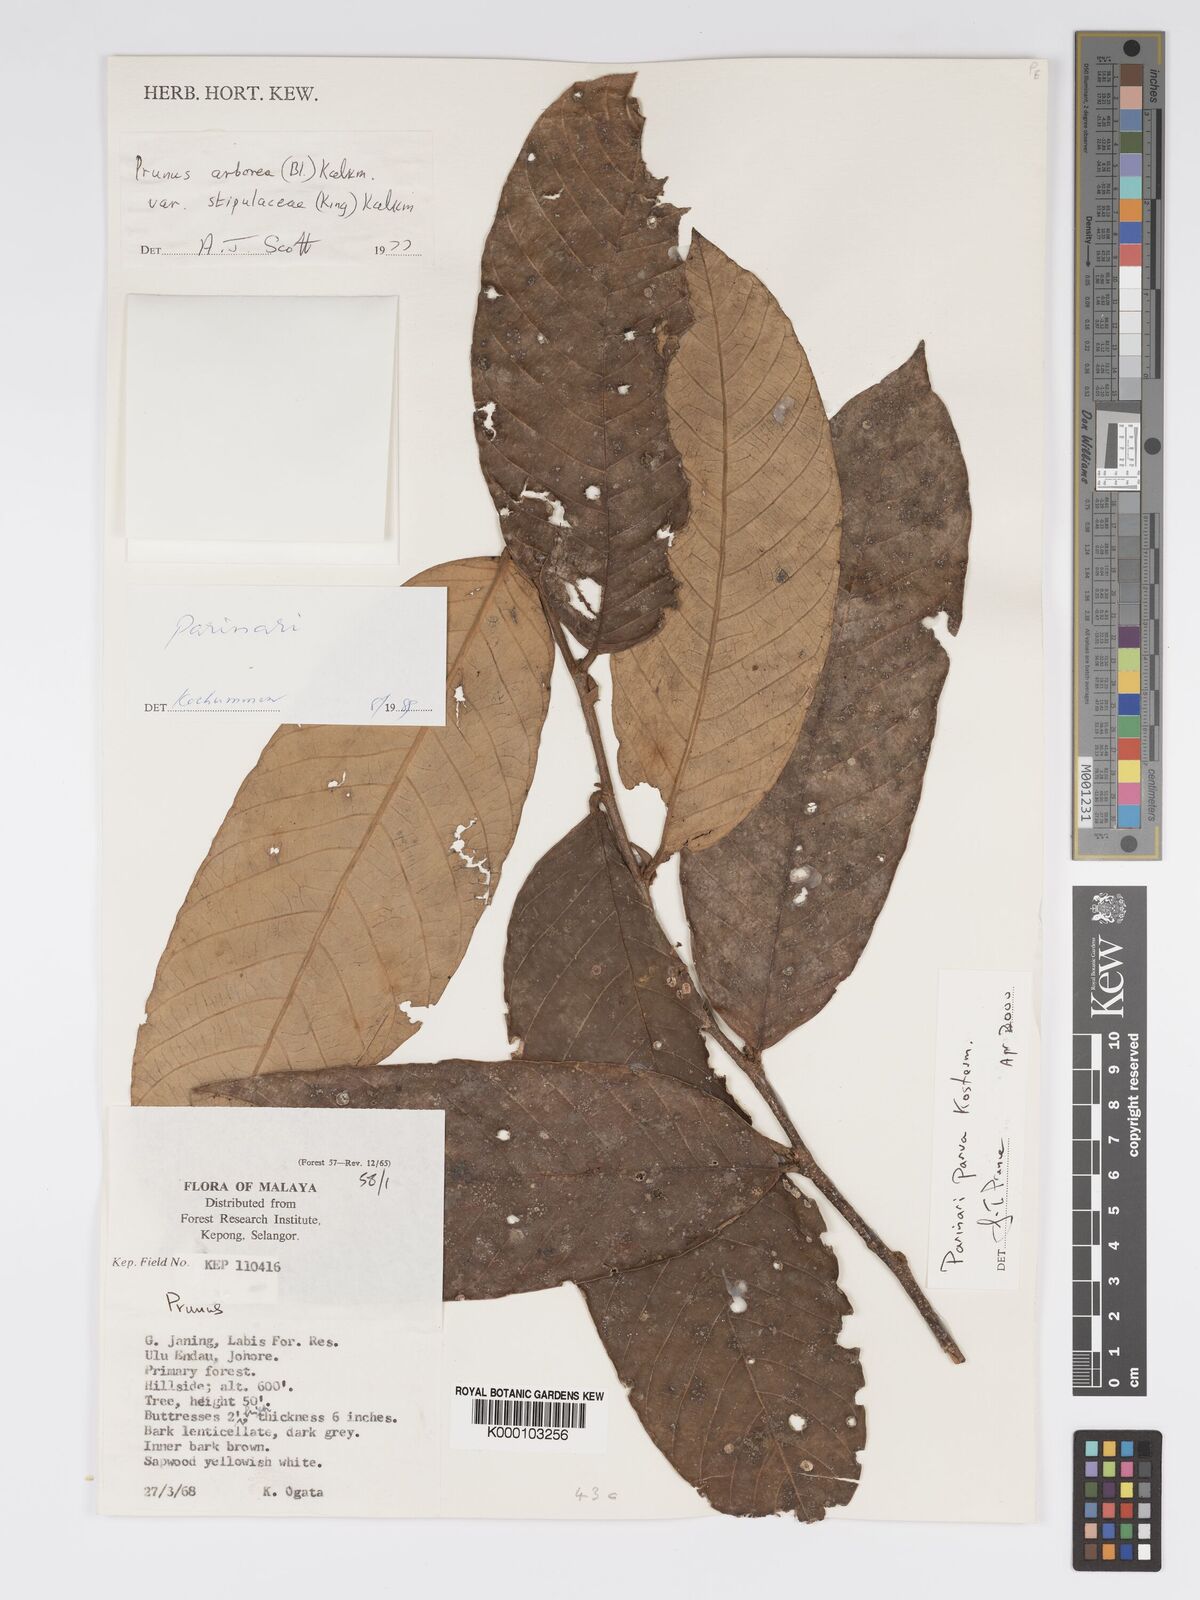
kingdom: Plantae
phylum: Tracheophyta
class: Magnoliopsida
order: Malpighiales
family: Chrysobalanaceae
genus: Parinari
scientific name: Parinari parva
